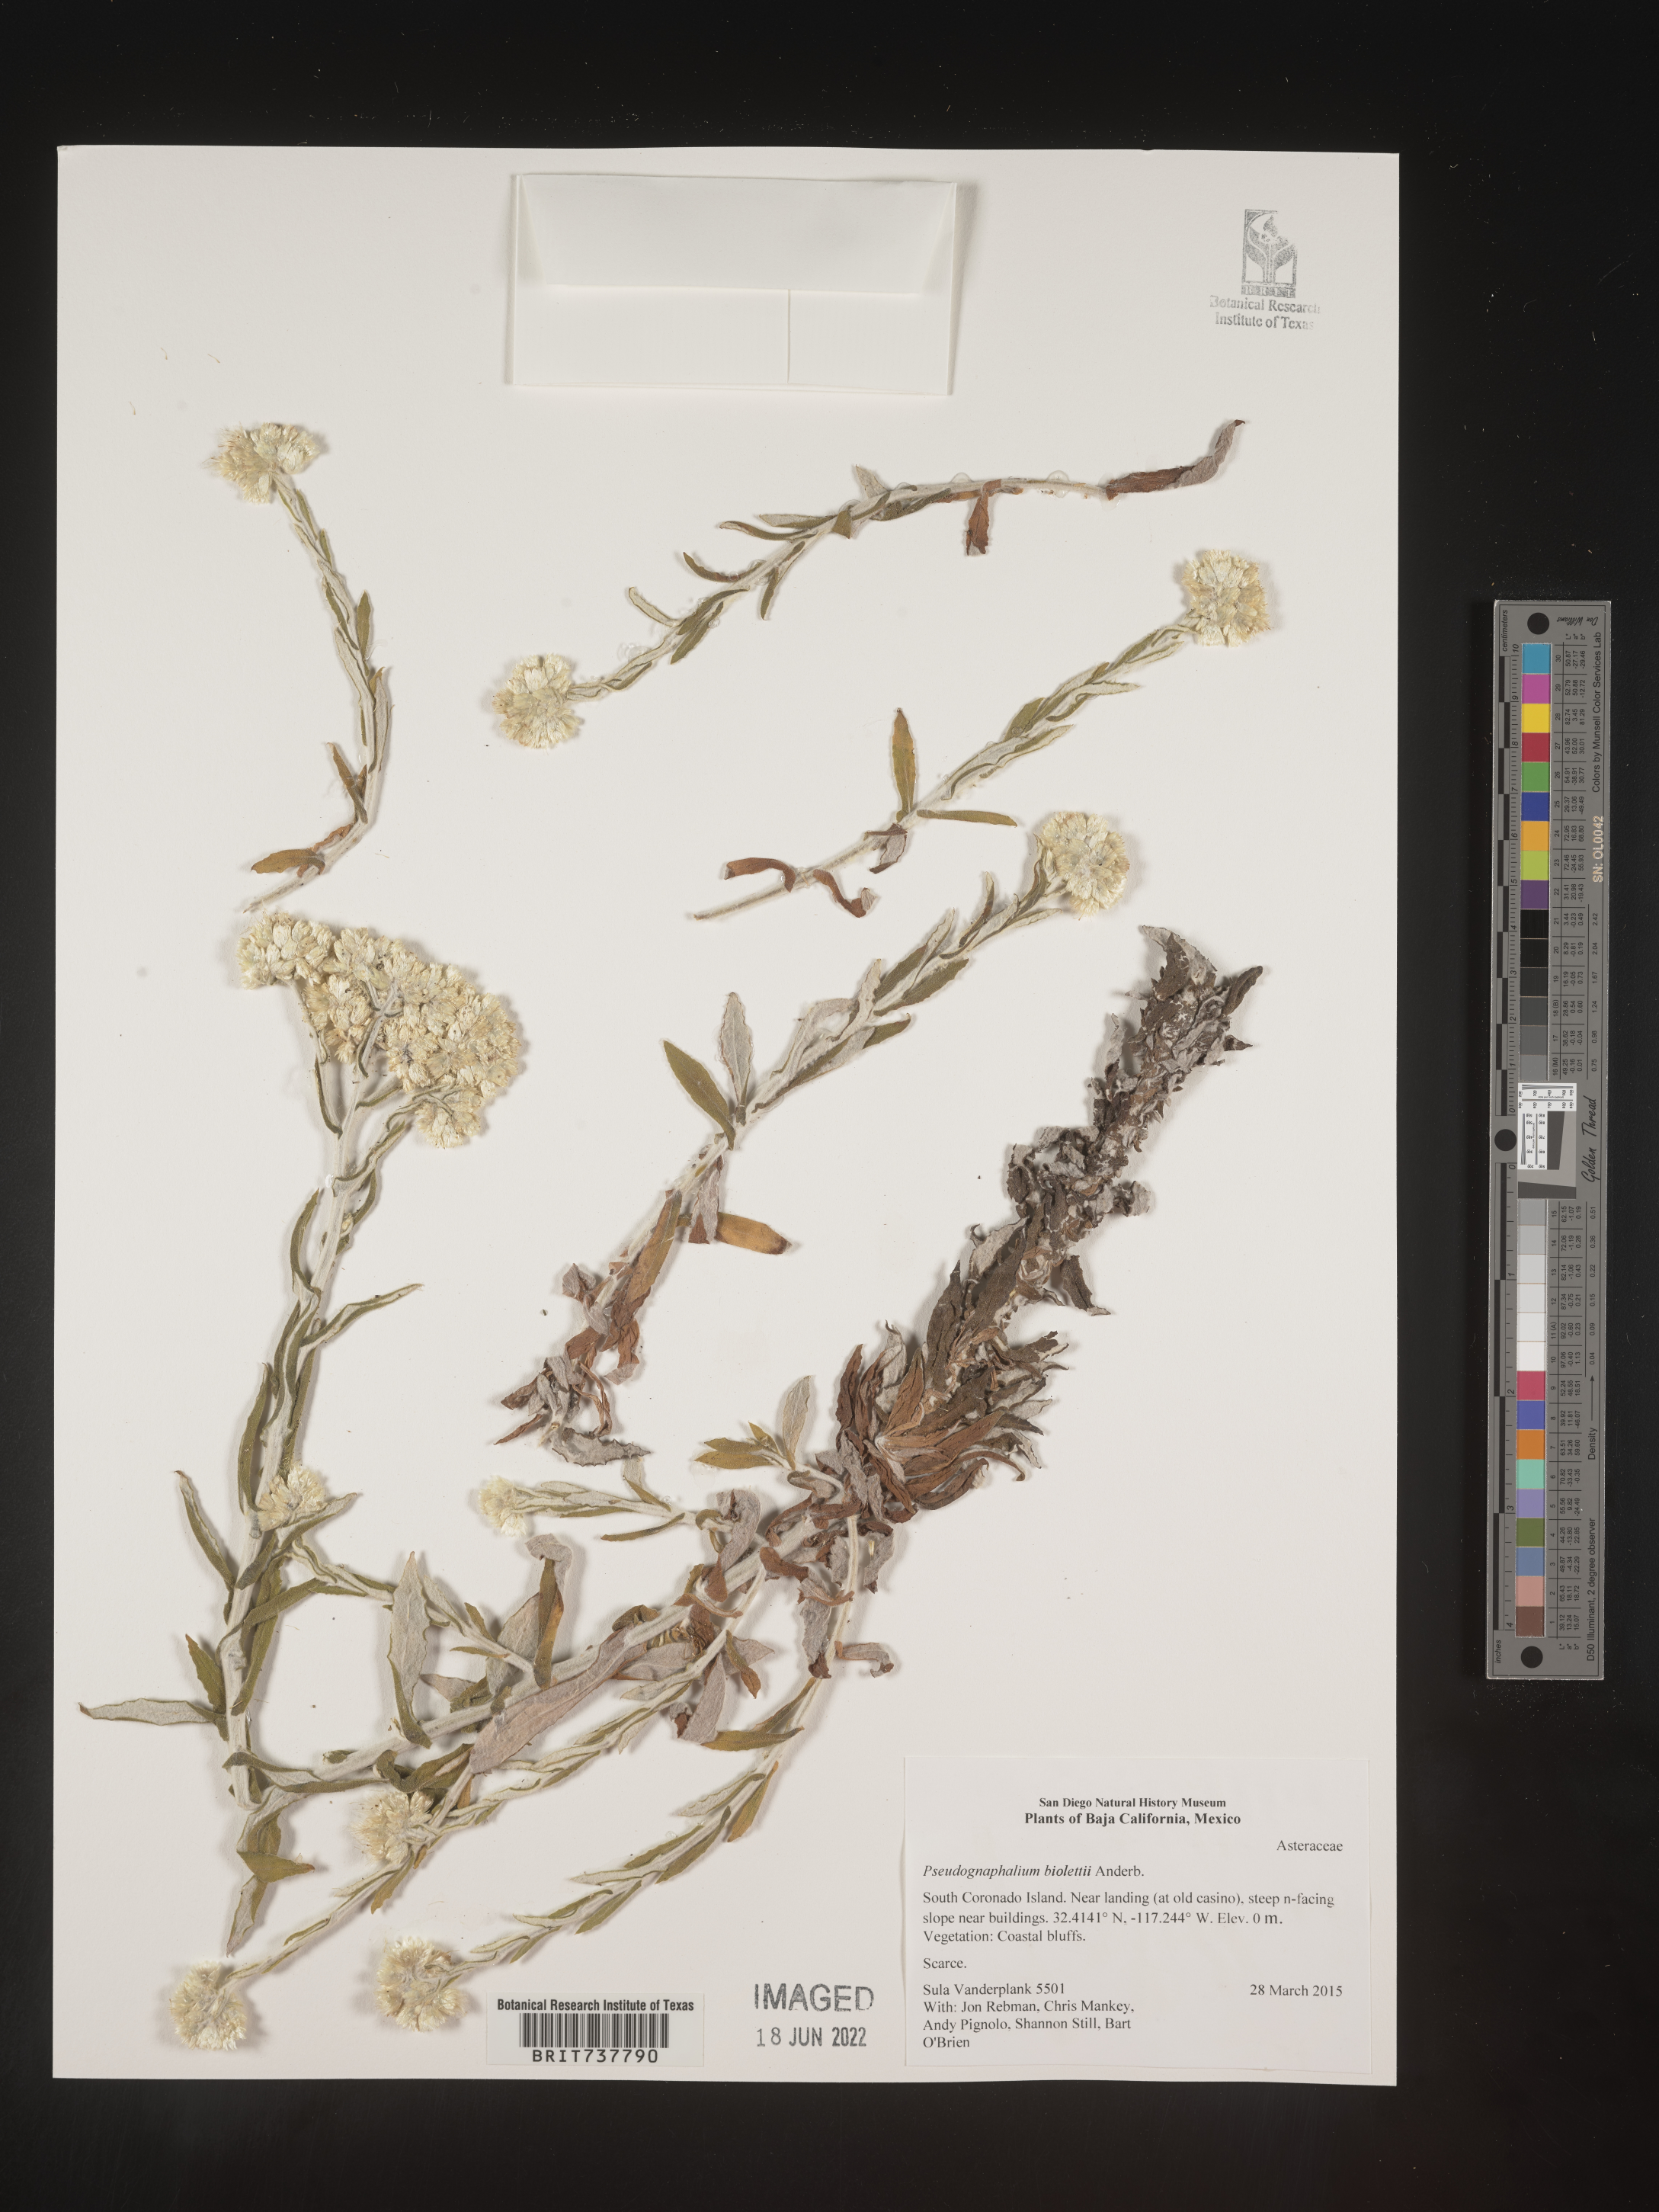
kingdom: Plantae
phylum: Tracheophyta
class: Magnoliopsida
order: Asterales
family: Asteraceae
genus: Pseudognaphalium
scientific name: Pseudognaphalium biolettii
